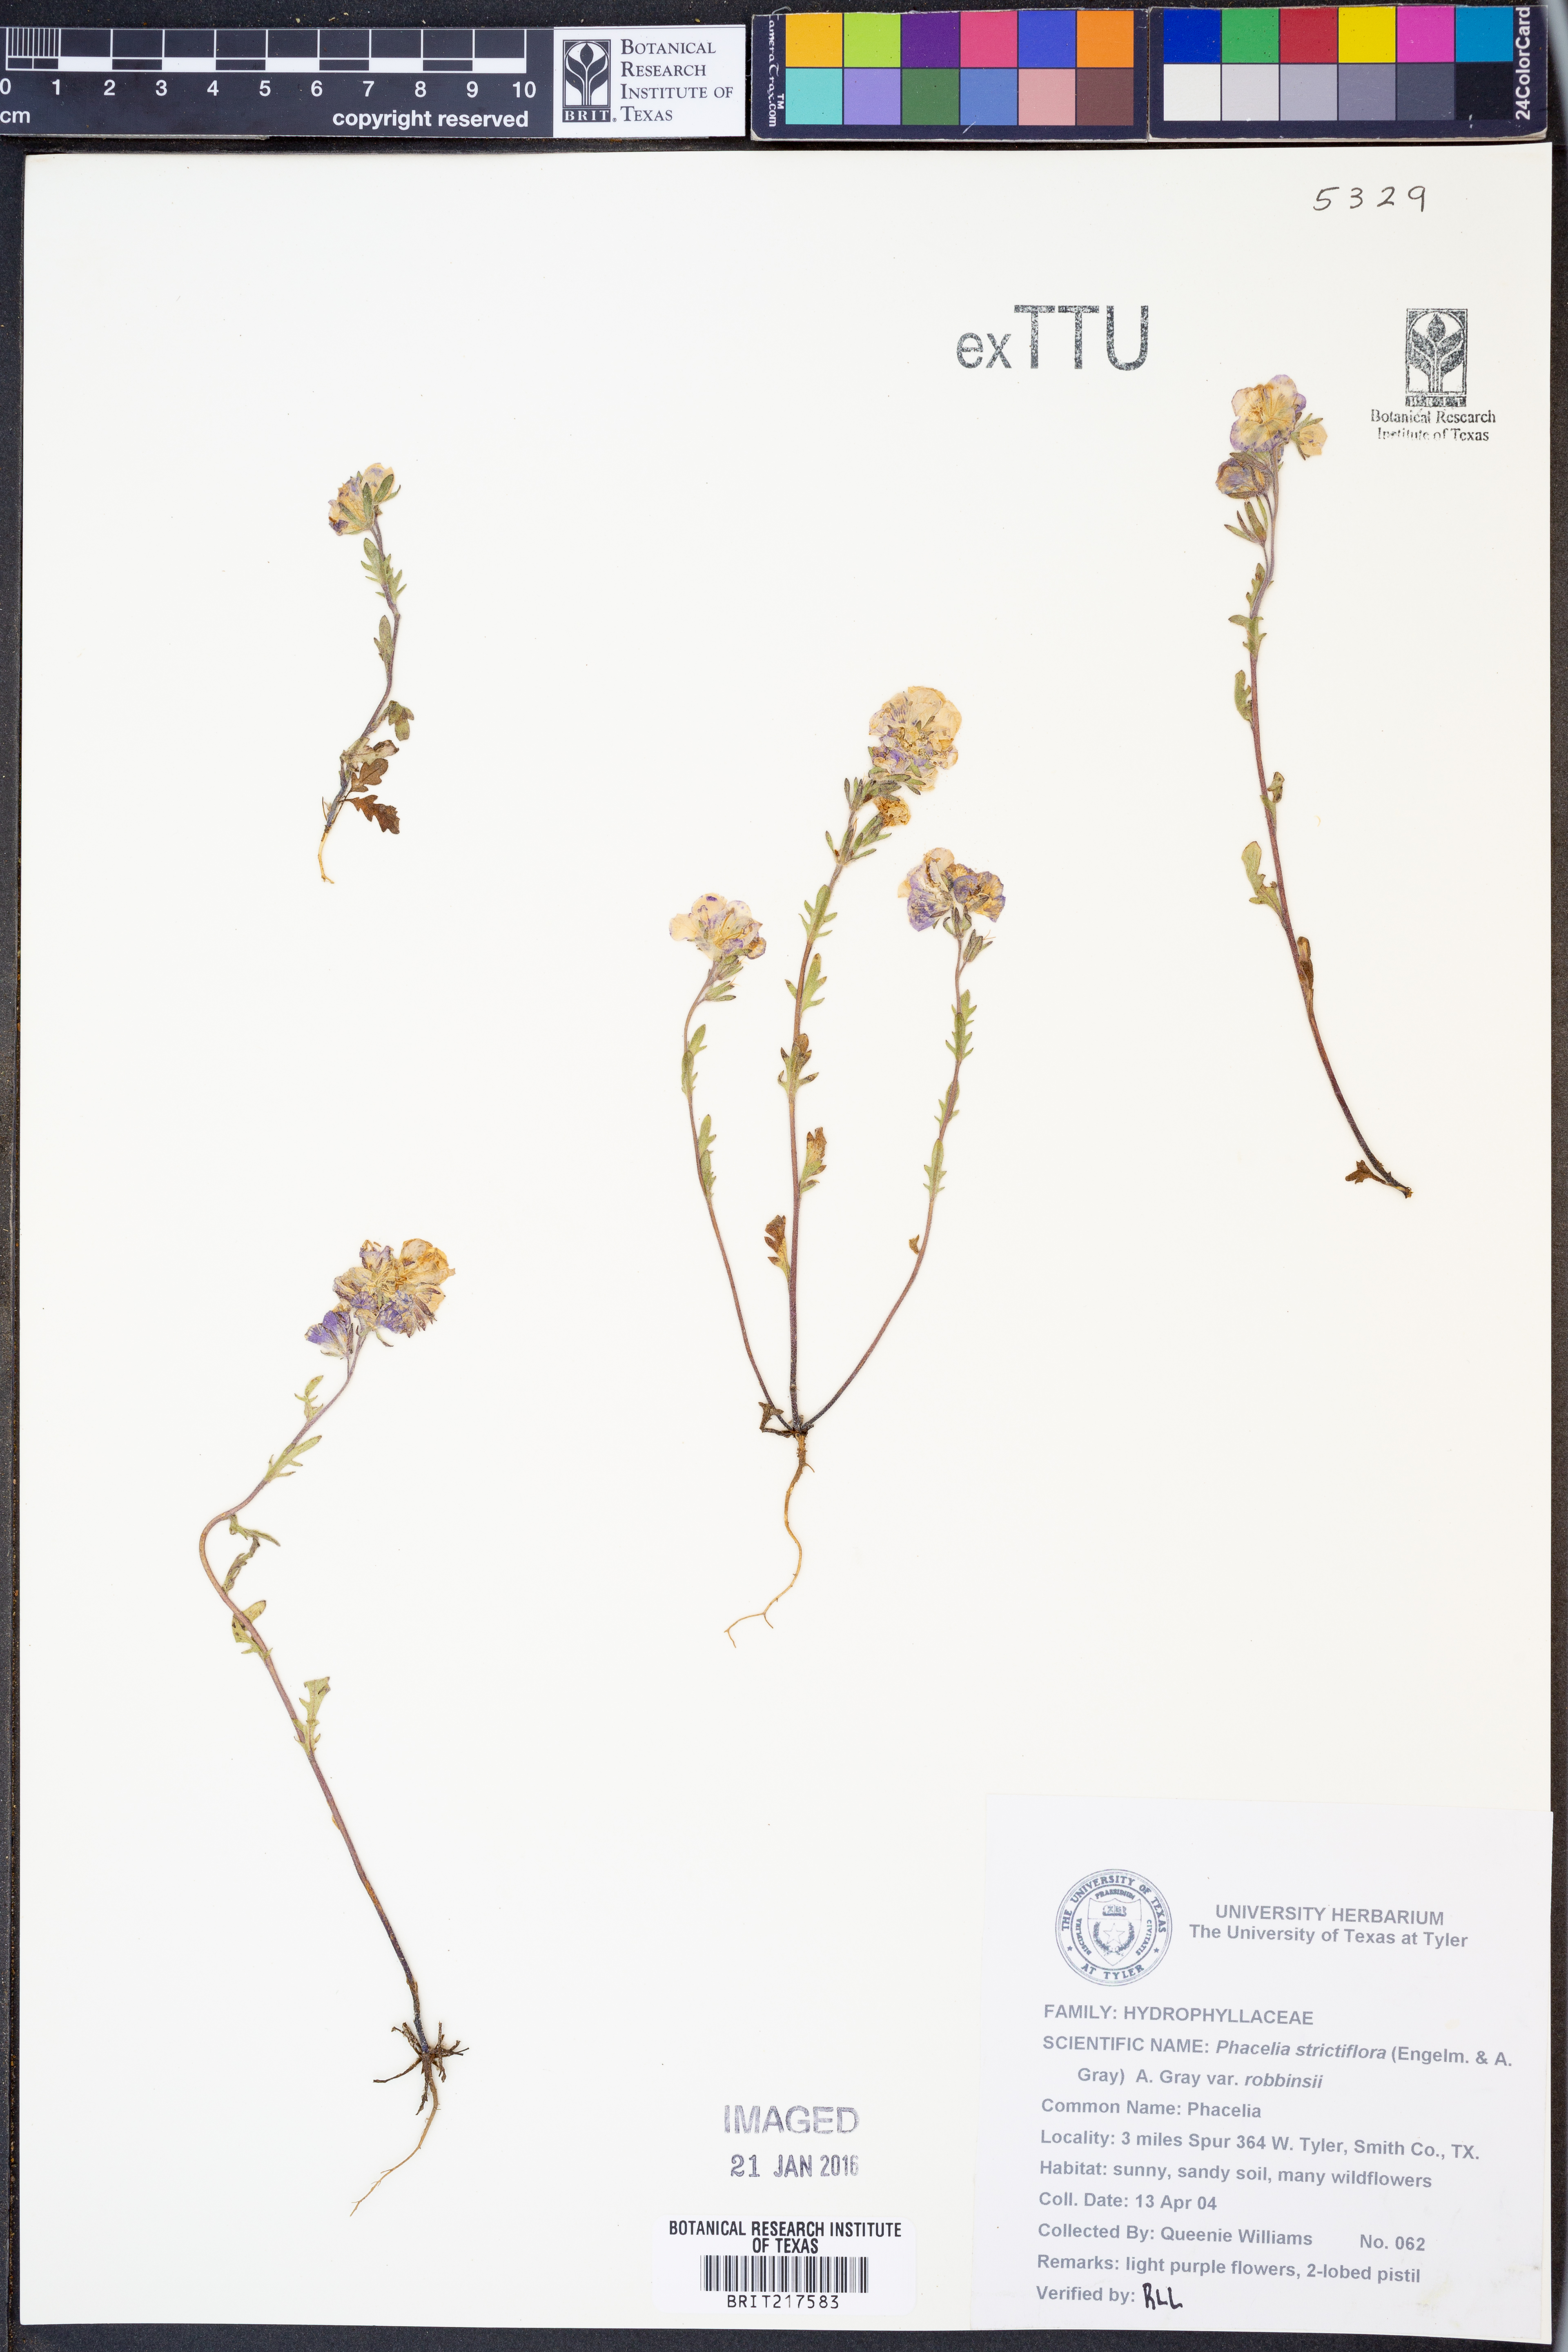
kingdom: Plantae
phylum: Tracheophyta
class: Magnoliopsida
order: Boraginales
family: Hydrophyllaceae
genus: Phacelia
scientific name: Phacelia strictiflora
